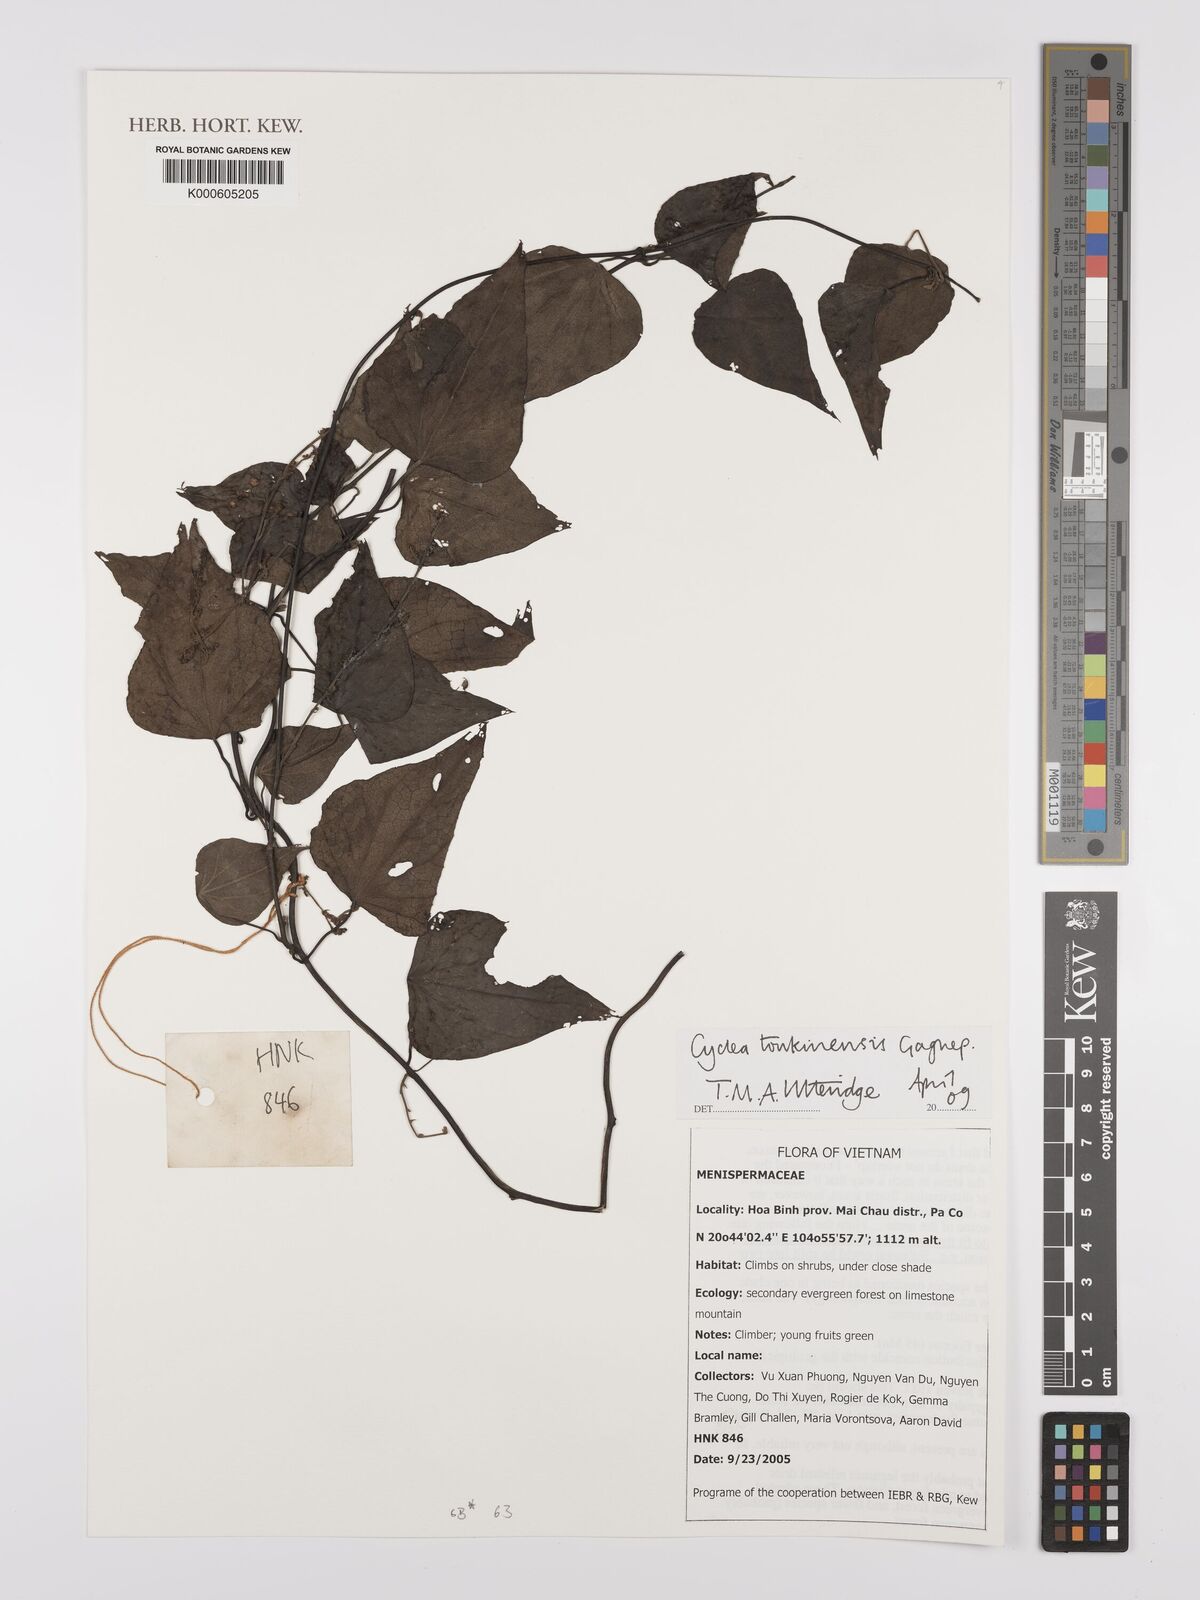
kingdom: Plantae
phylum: Tracheophyta
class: Magnoliopsida
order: Ranunculales
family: Menispermaceae
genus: Cyclea
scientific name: Cyclea tonkinensis
